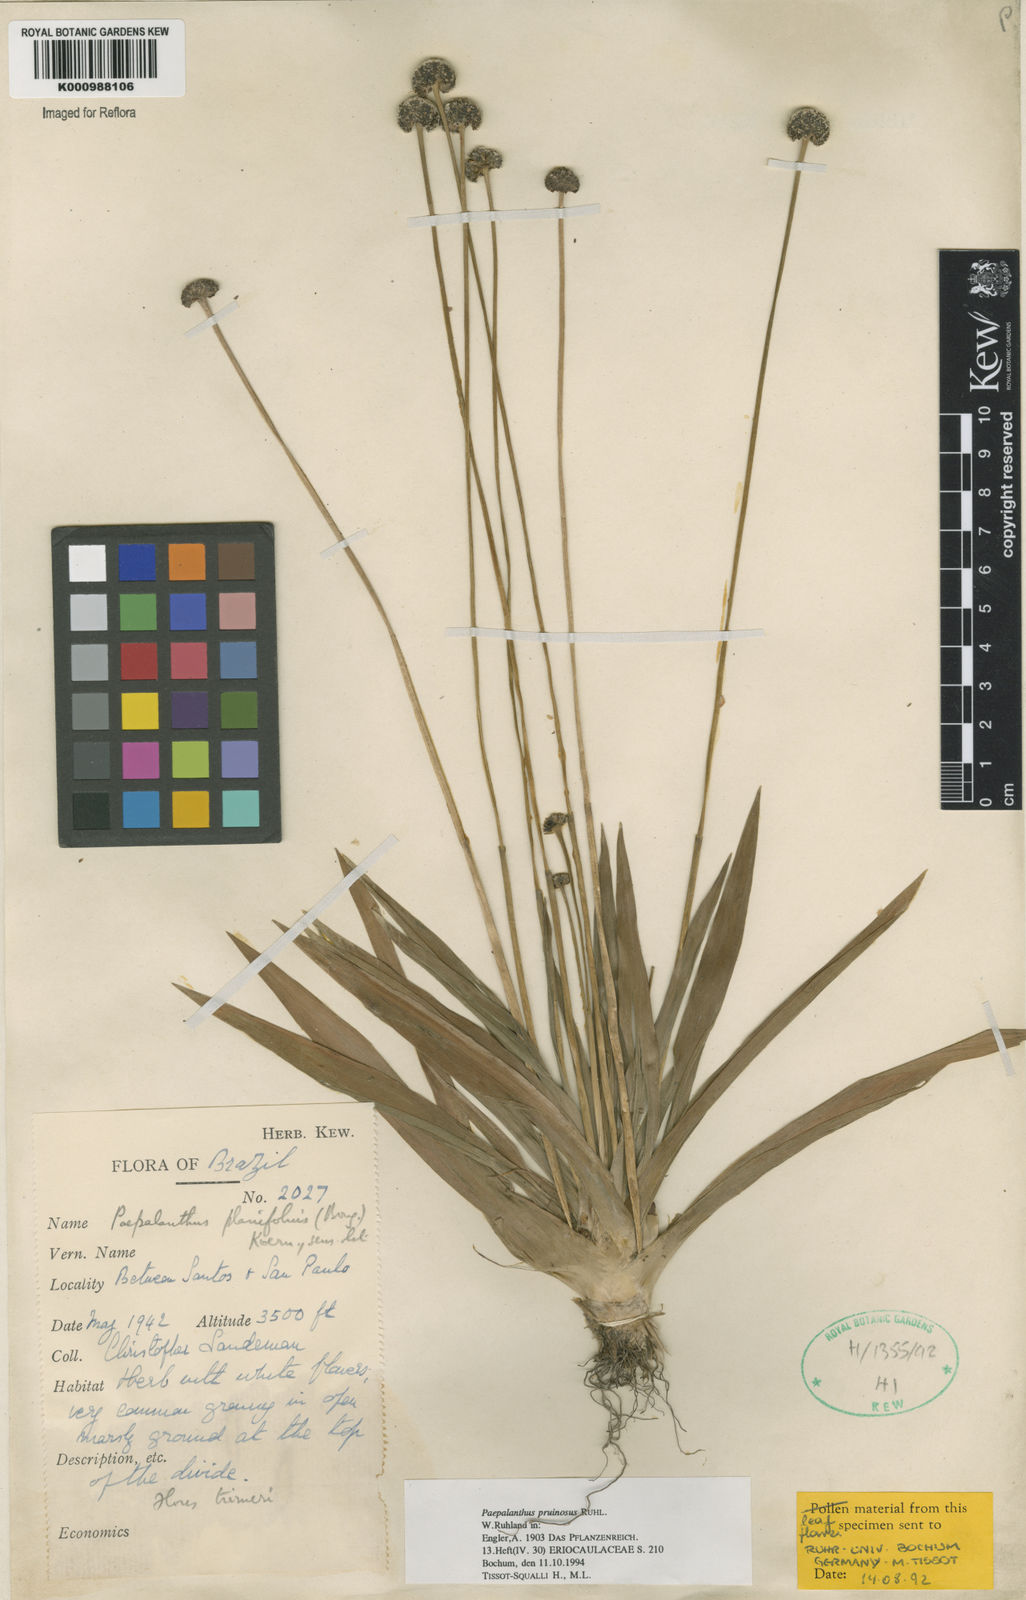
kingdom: Plantae
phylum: Tracheophyta
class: Liliopsida
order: Poales
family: Eriocaulaceae
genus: Paepalanthus
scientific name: Paepalanthus pruinosus
